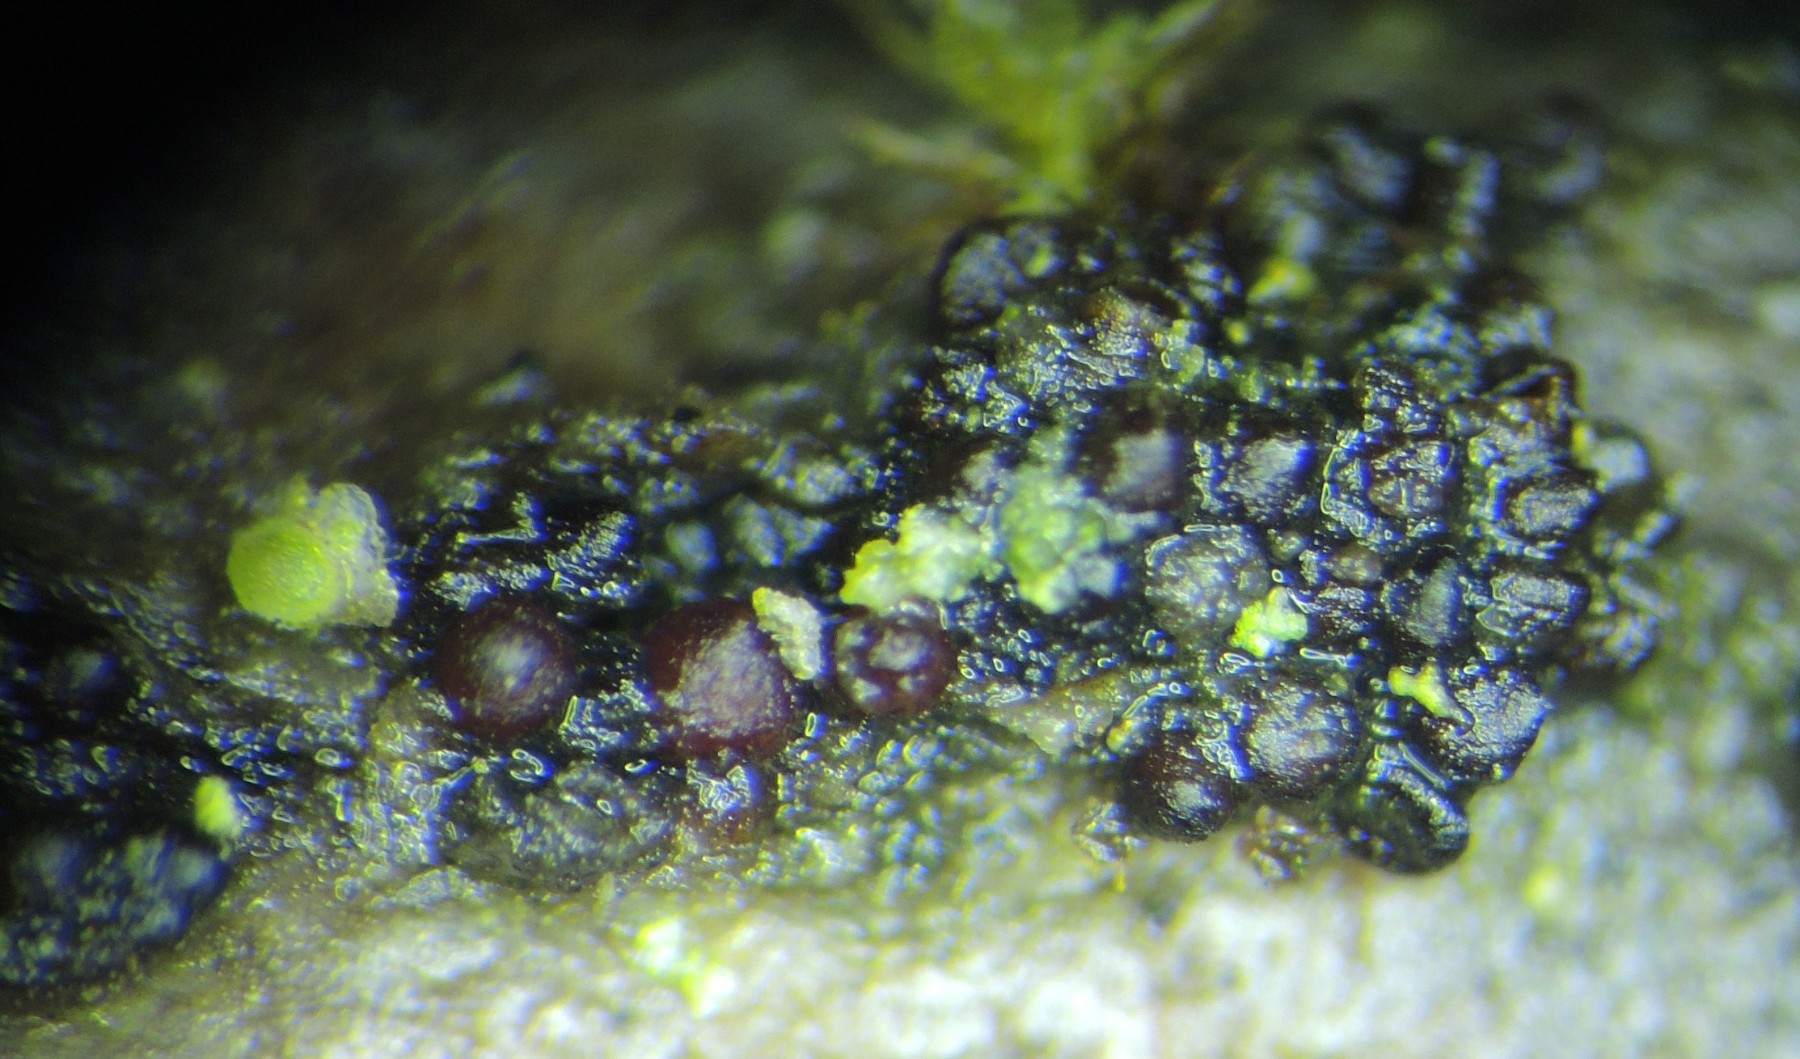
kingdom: Fungi
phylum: Ascomycota
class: Sordariomycetes
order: Hypocreales
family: Nectriaceae
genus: Neonectria
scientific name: Neonectria coccinea
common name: bøgebark-cinnobersvamp
